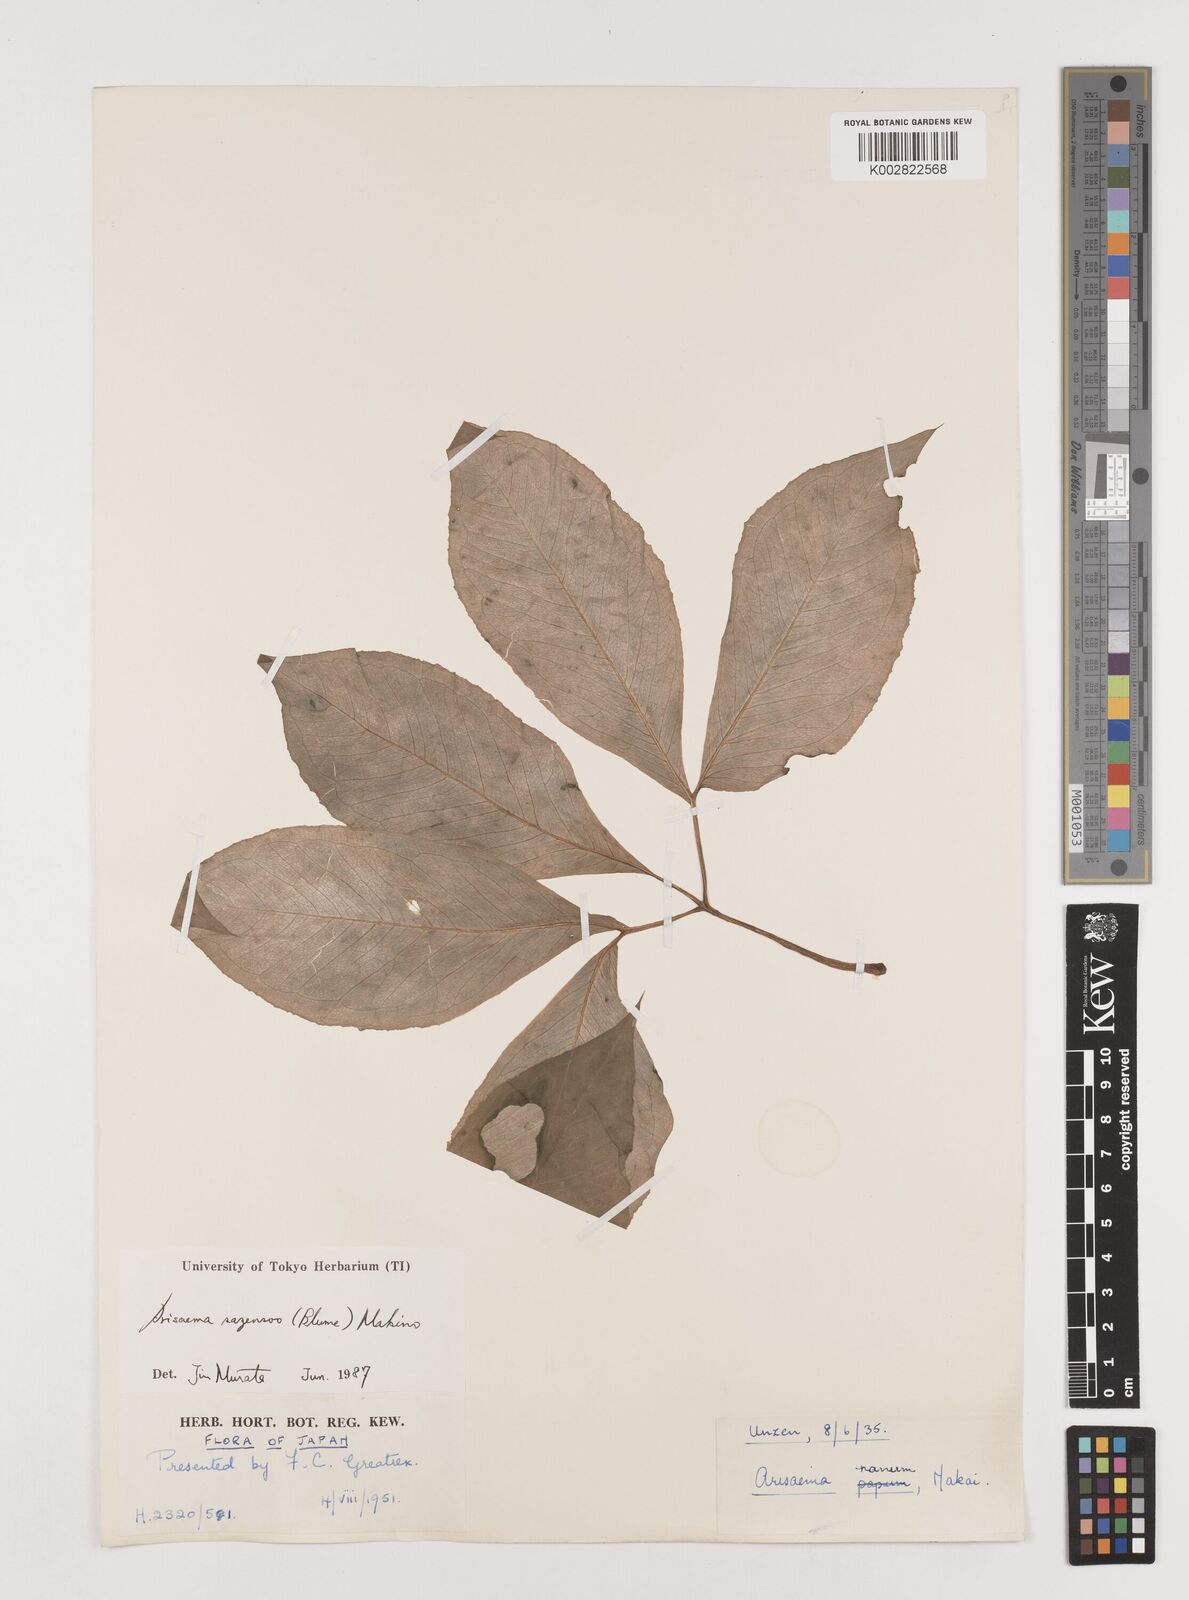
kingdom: Plantae
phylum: Tracheophyta
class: Liliopsida
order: Alismatales
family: Araceae
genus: Arisaema
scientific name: Arisaema sazensoo
